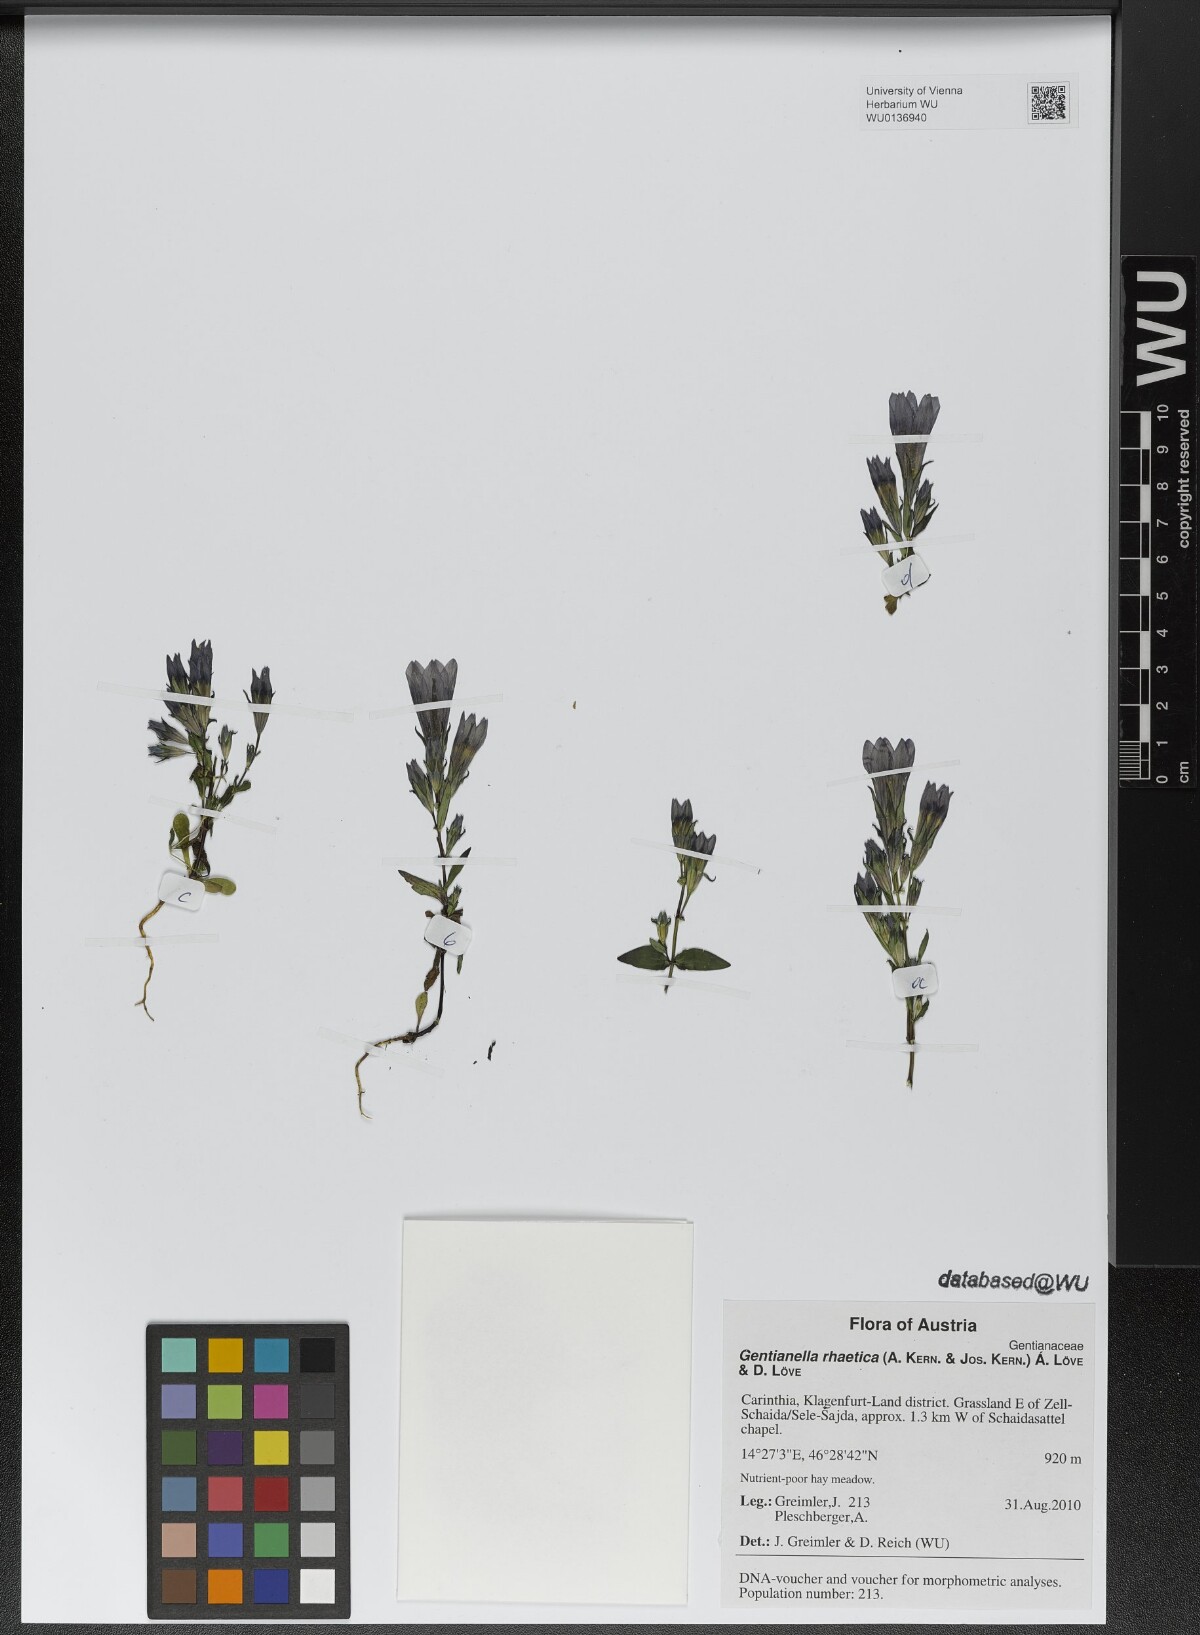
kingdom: Plantae
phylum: Tracheophyta
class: Magnoliopsida
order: Gentianales
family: Gentianaceae
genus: Gentianella
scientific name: Gentianella rhaetica
